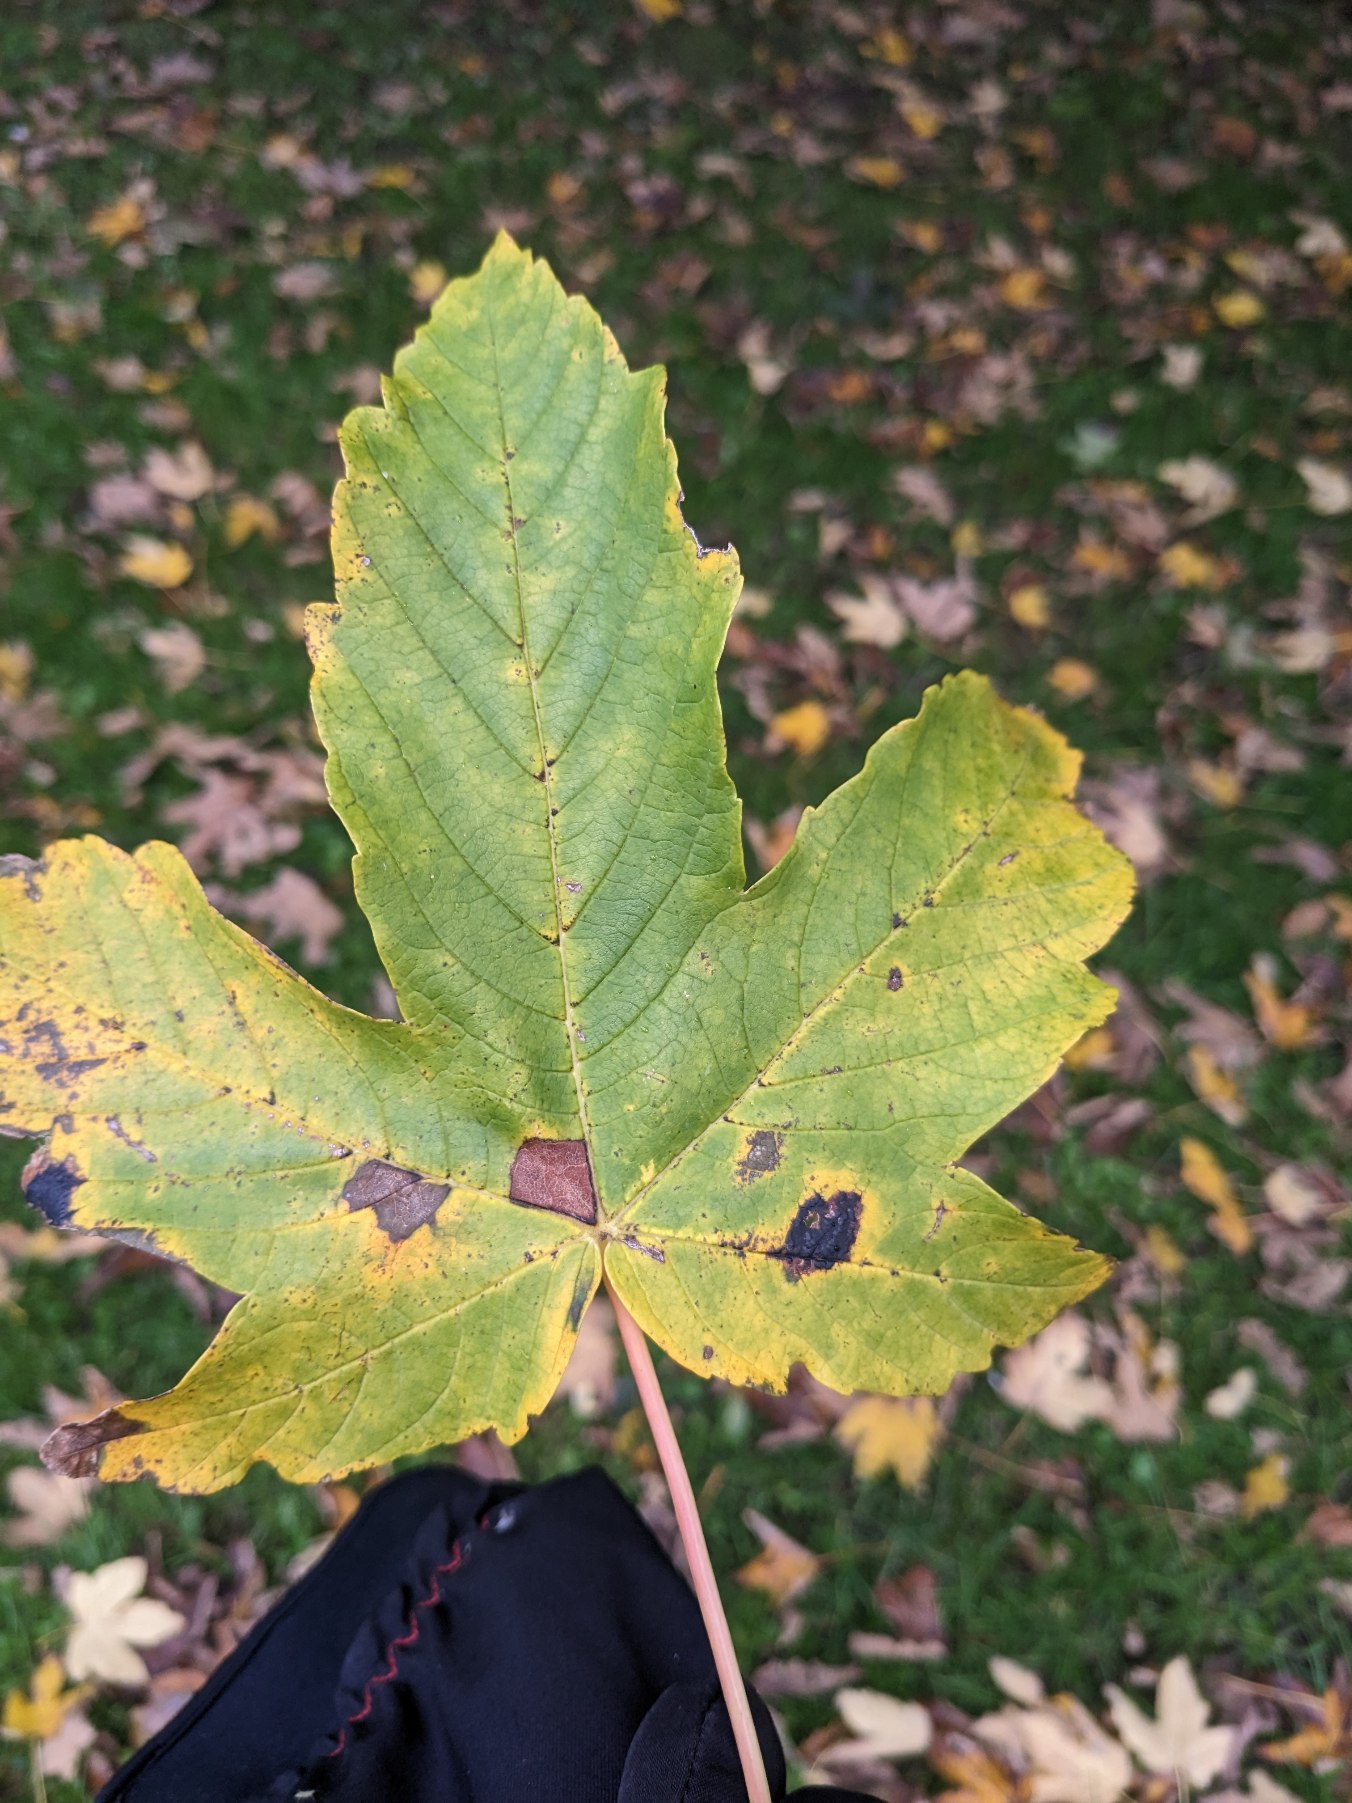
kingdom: Plantae
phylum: Tracheophyta
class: Magnoliopsida
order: Sapindales
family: Sapindaceae
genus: Acer
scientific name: Acer pseudoplatanus
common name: Ahorn
